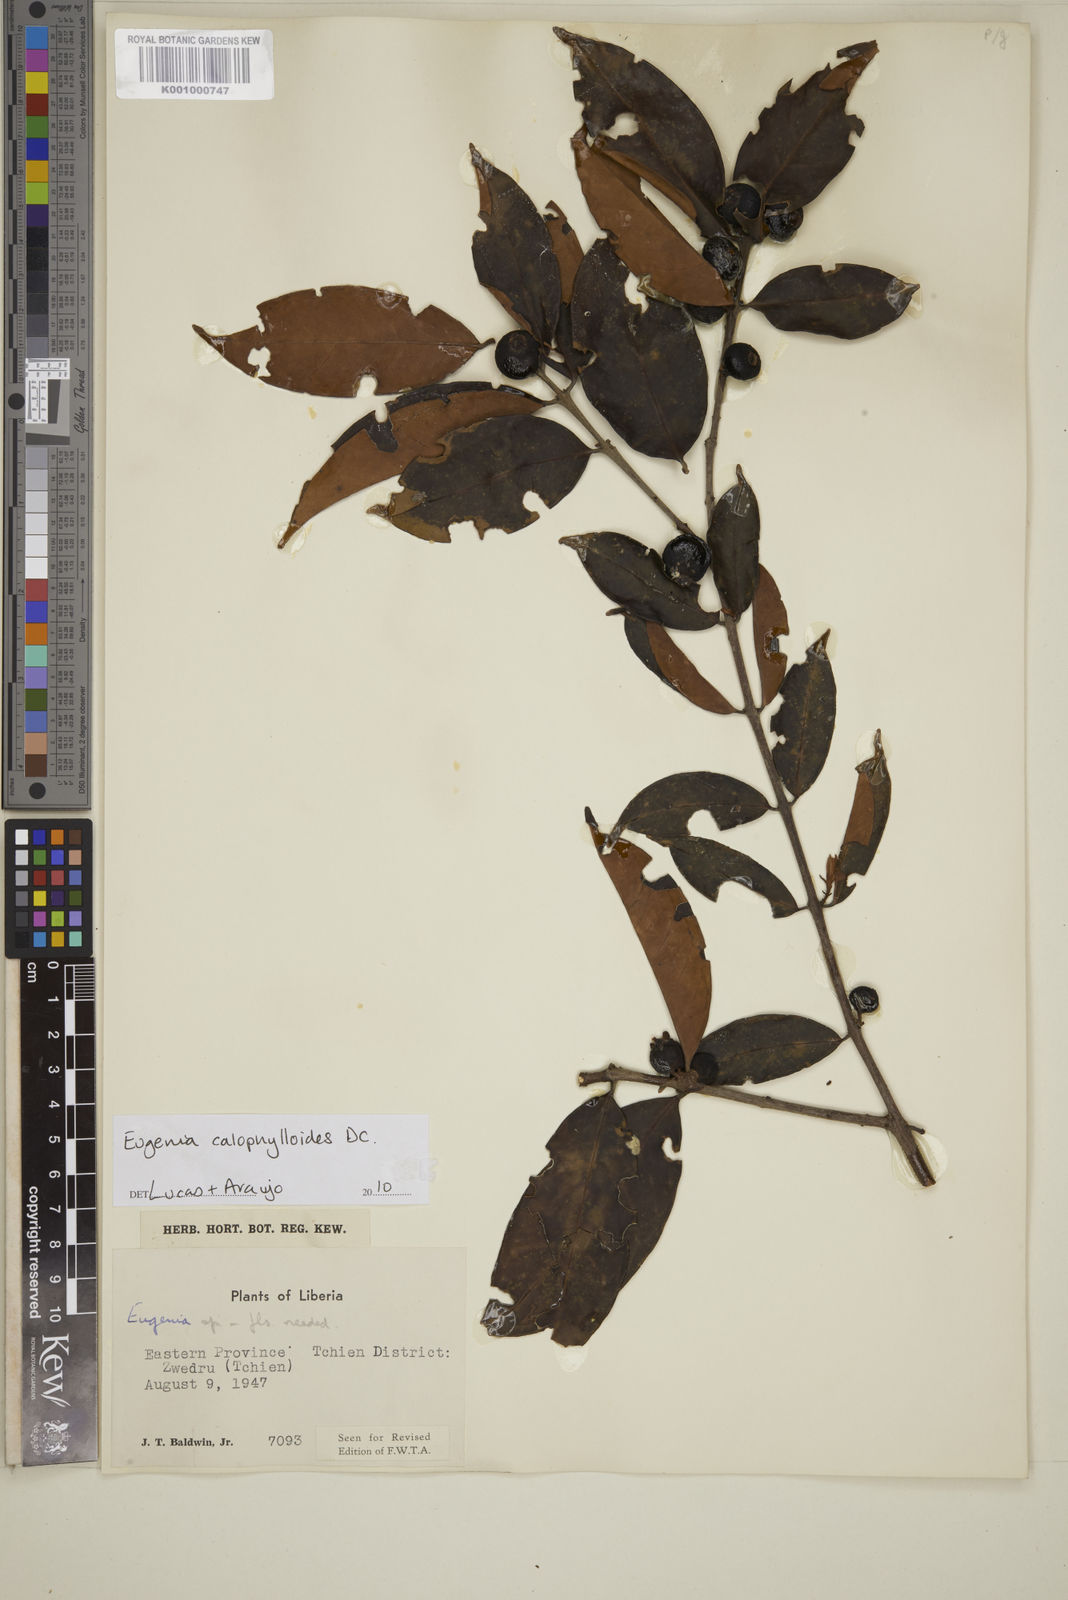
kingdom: Plantae
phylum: Tracheophyta
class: Magnoliopsida
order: Myrtales
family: Myrtaceae
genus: Eugenia
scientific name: Eugenia calophylloides
